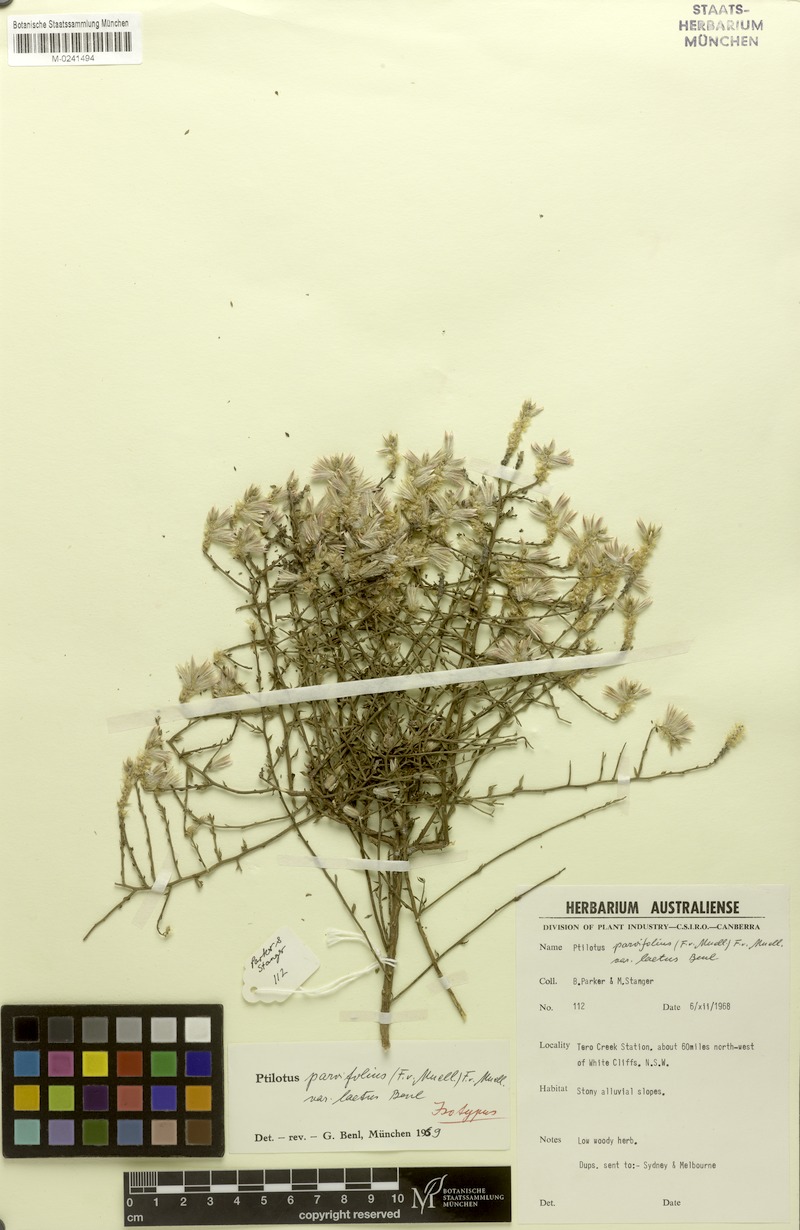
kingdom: Plantae
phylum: Tracheophyta
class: Magnoliopsida
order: Caryophyllales
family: Amaranthaceae
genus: Ptilotus
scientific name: Ptilotus parvifolius
